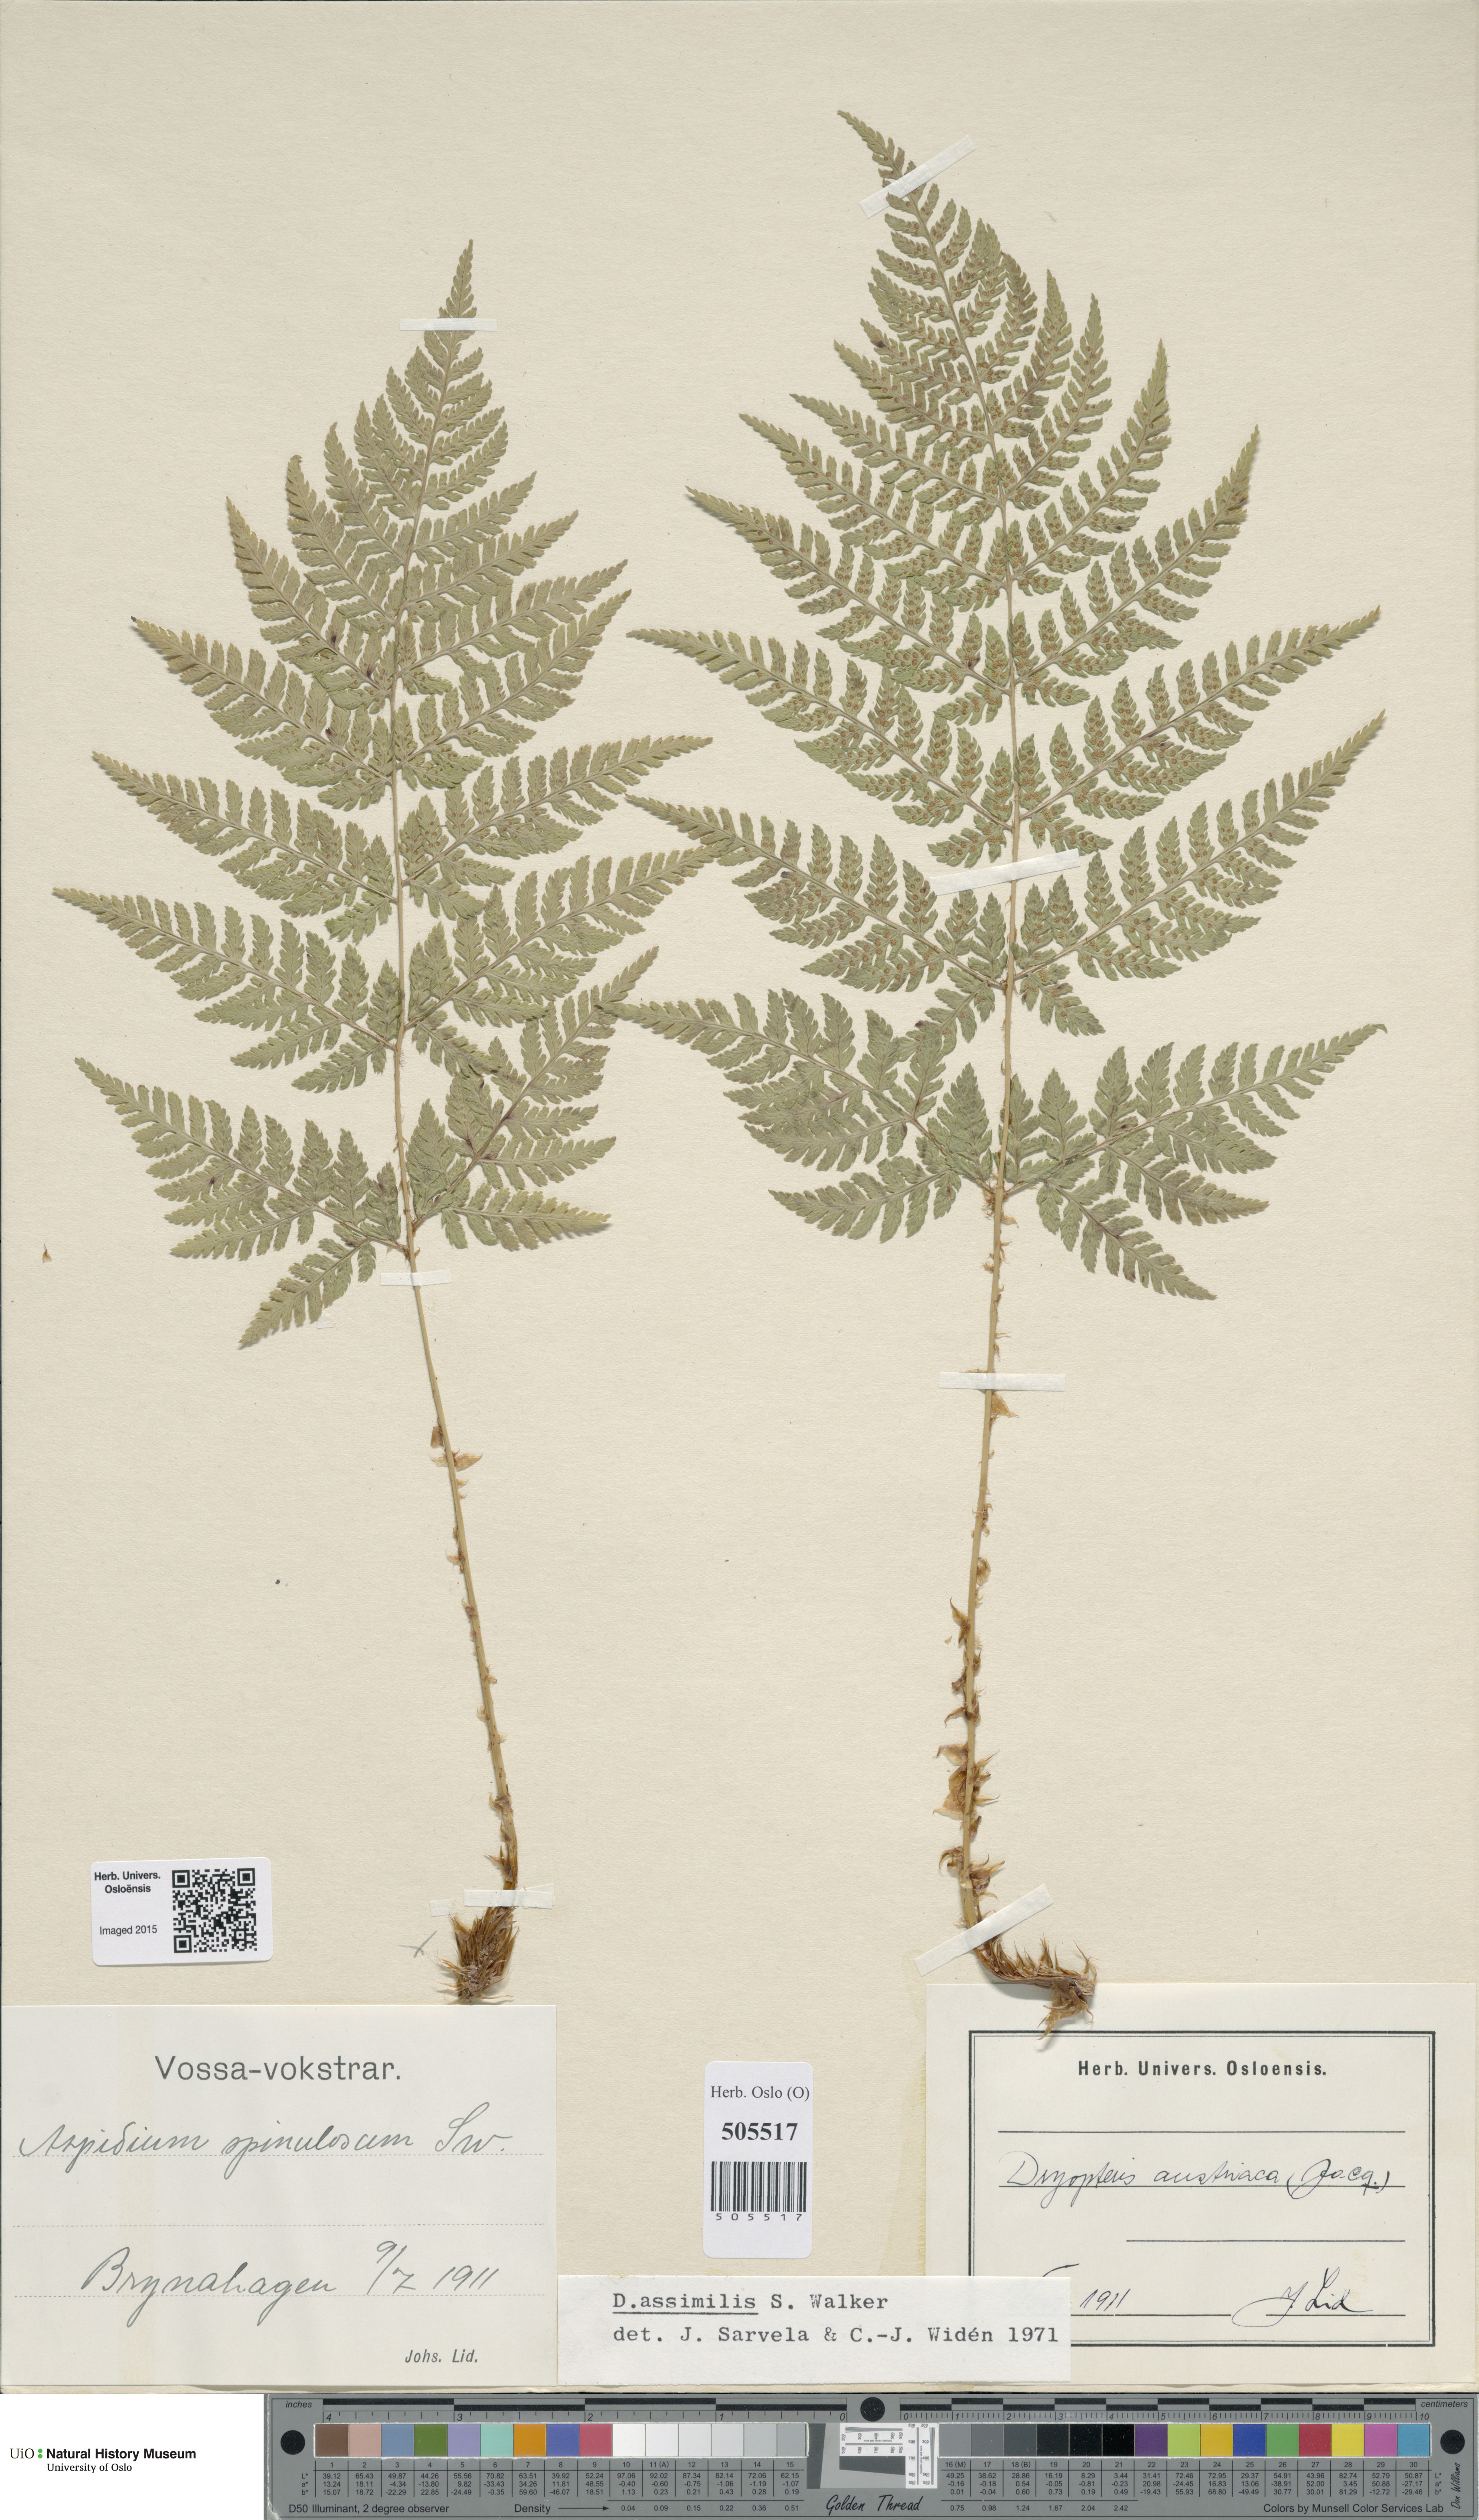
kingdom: Plantae
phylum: Tracheophyta
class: Polypodiopsida
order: Polypodiales
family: Dryopteridaceae
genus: Dryopteris
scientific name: Dryopteris expansa
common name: Northern buckler fern
